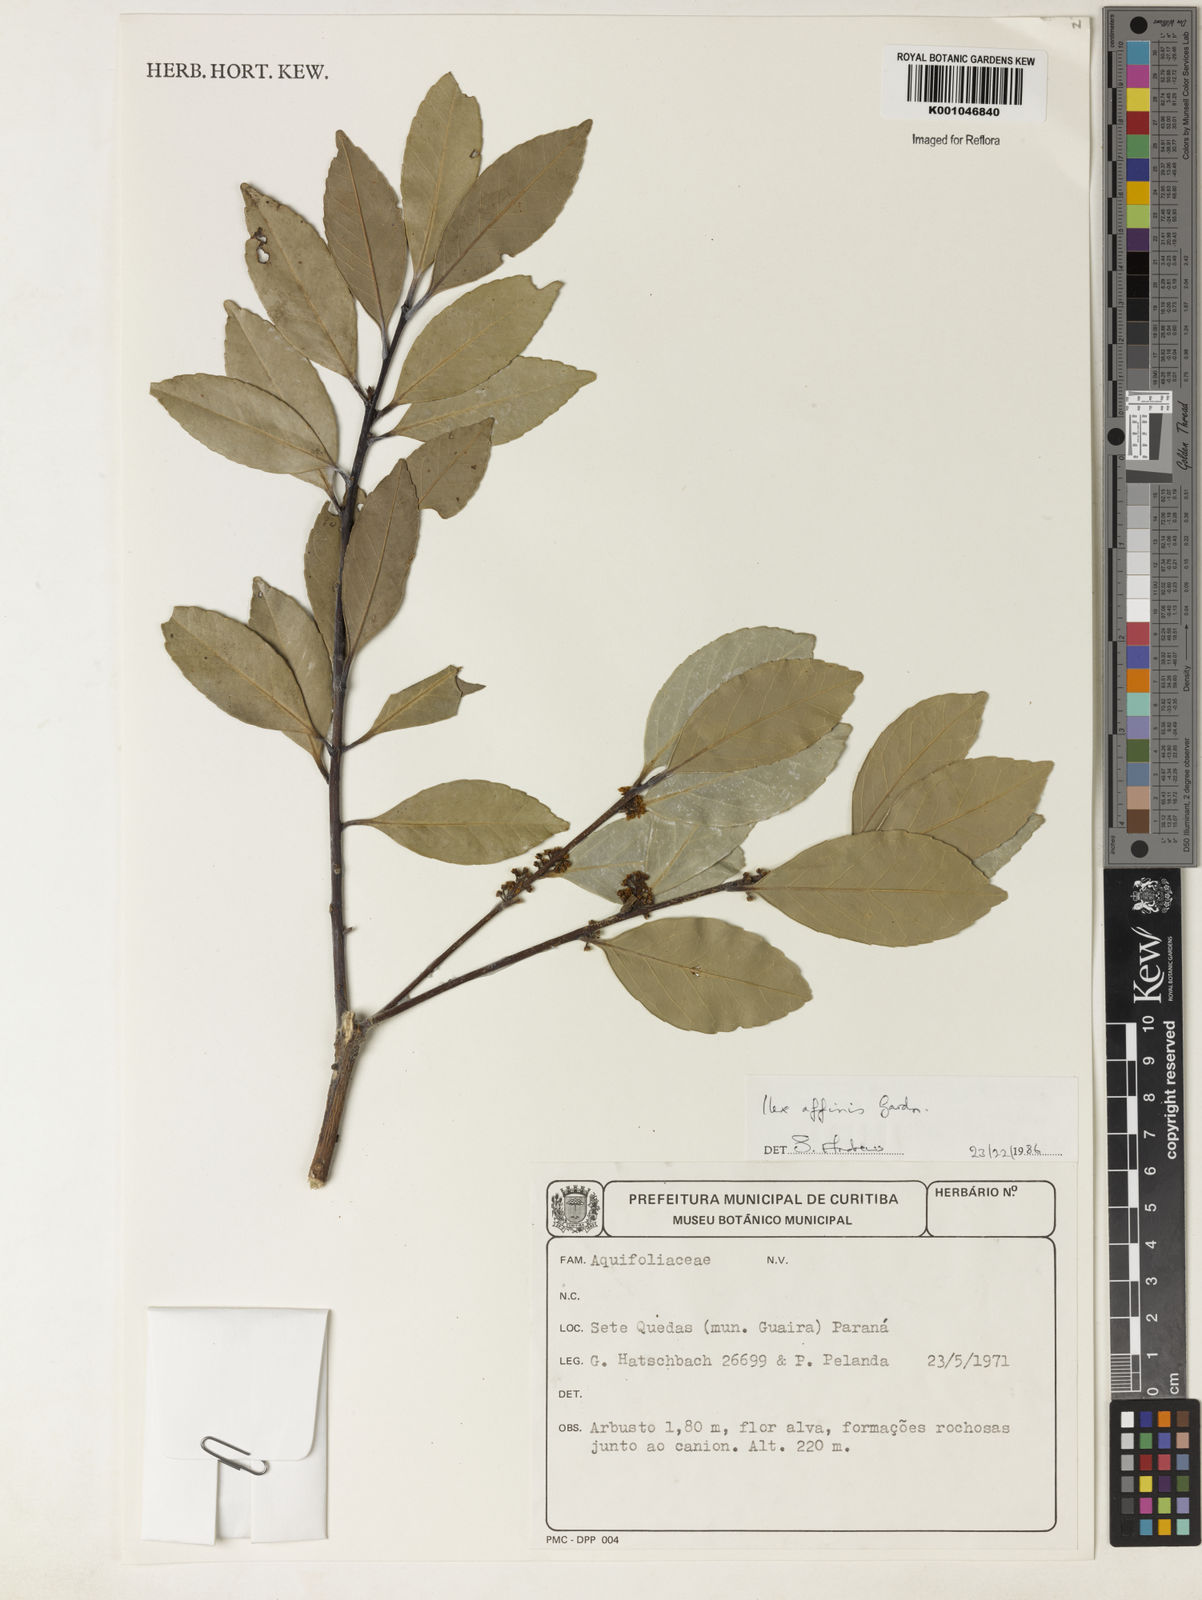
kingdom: Plantae
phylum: Tracheophyta
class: Magnoliopsida
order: Aquifoliales
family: Aquifoliaceae
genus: Ilex
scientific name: Ilex affinis
